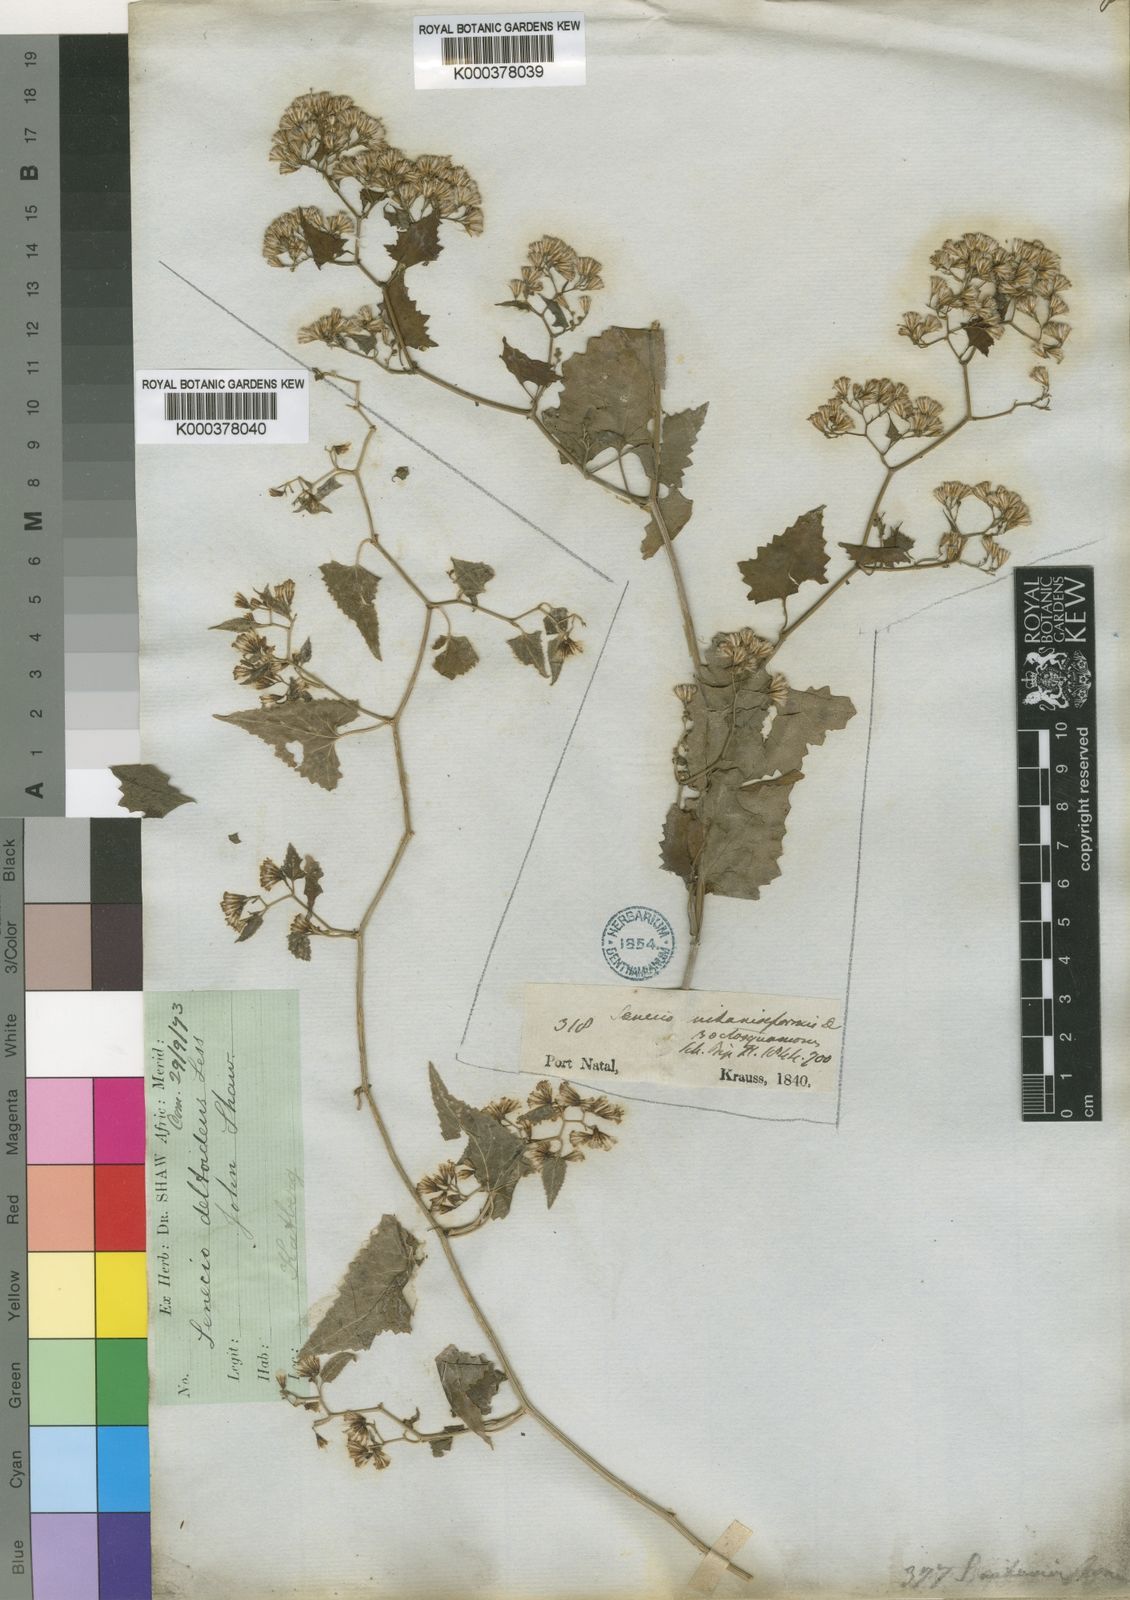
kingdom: Plantae
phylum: Tracheophyta
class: Magnoliopsida
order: Asterales
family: Asteraceae
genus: Senecio
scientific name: Senecio deltoideus
